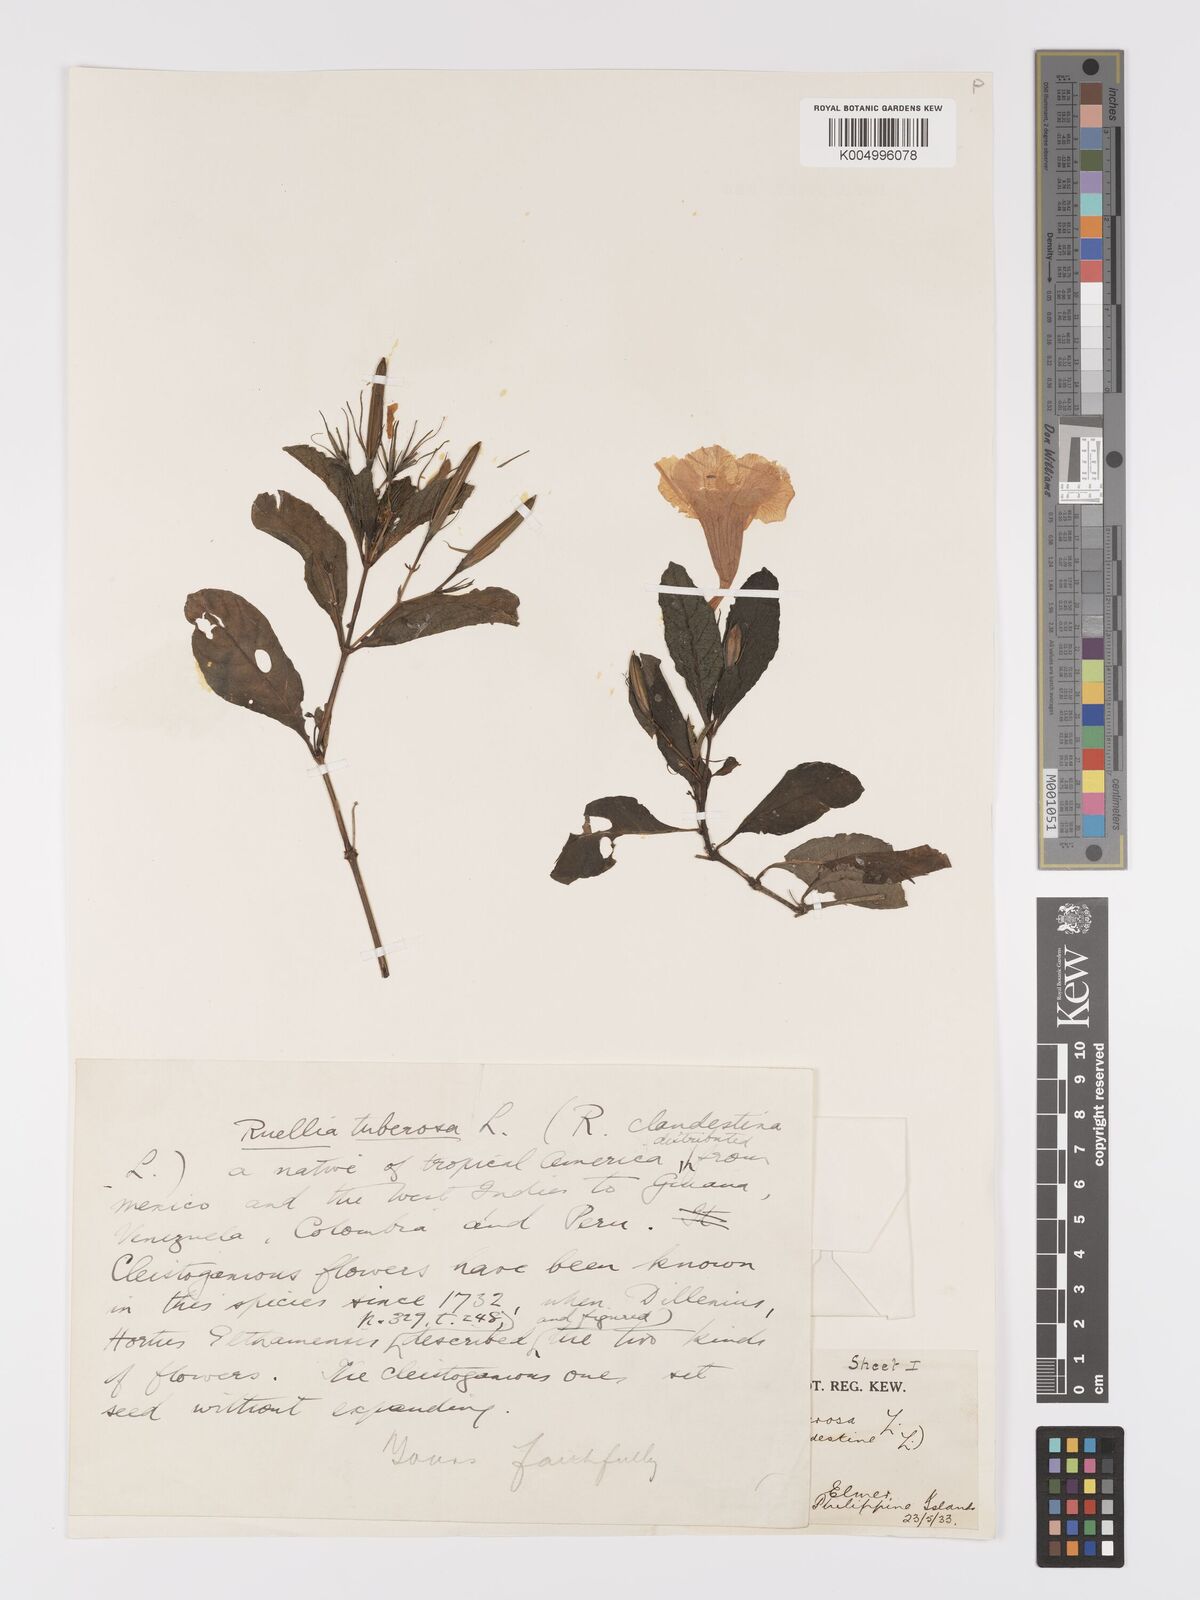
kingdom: Plantae
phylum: Tracheophyta
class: Magnoliopsida
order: Lamiales
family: Acanthaceae
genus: Ruellia
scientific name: Ruellia tuberosa
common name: Devil's bit
